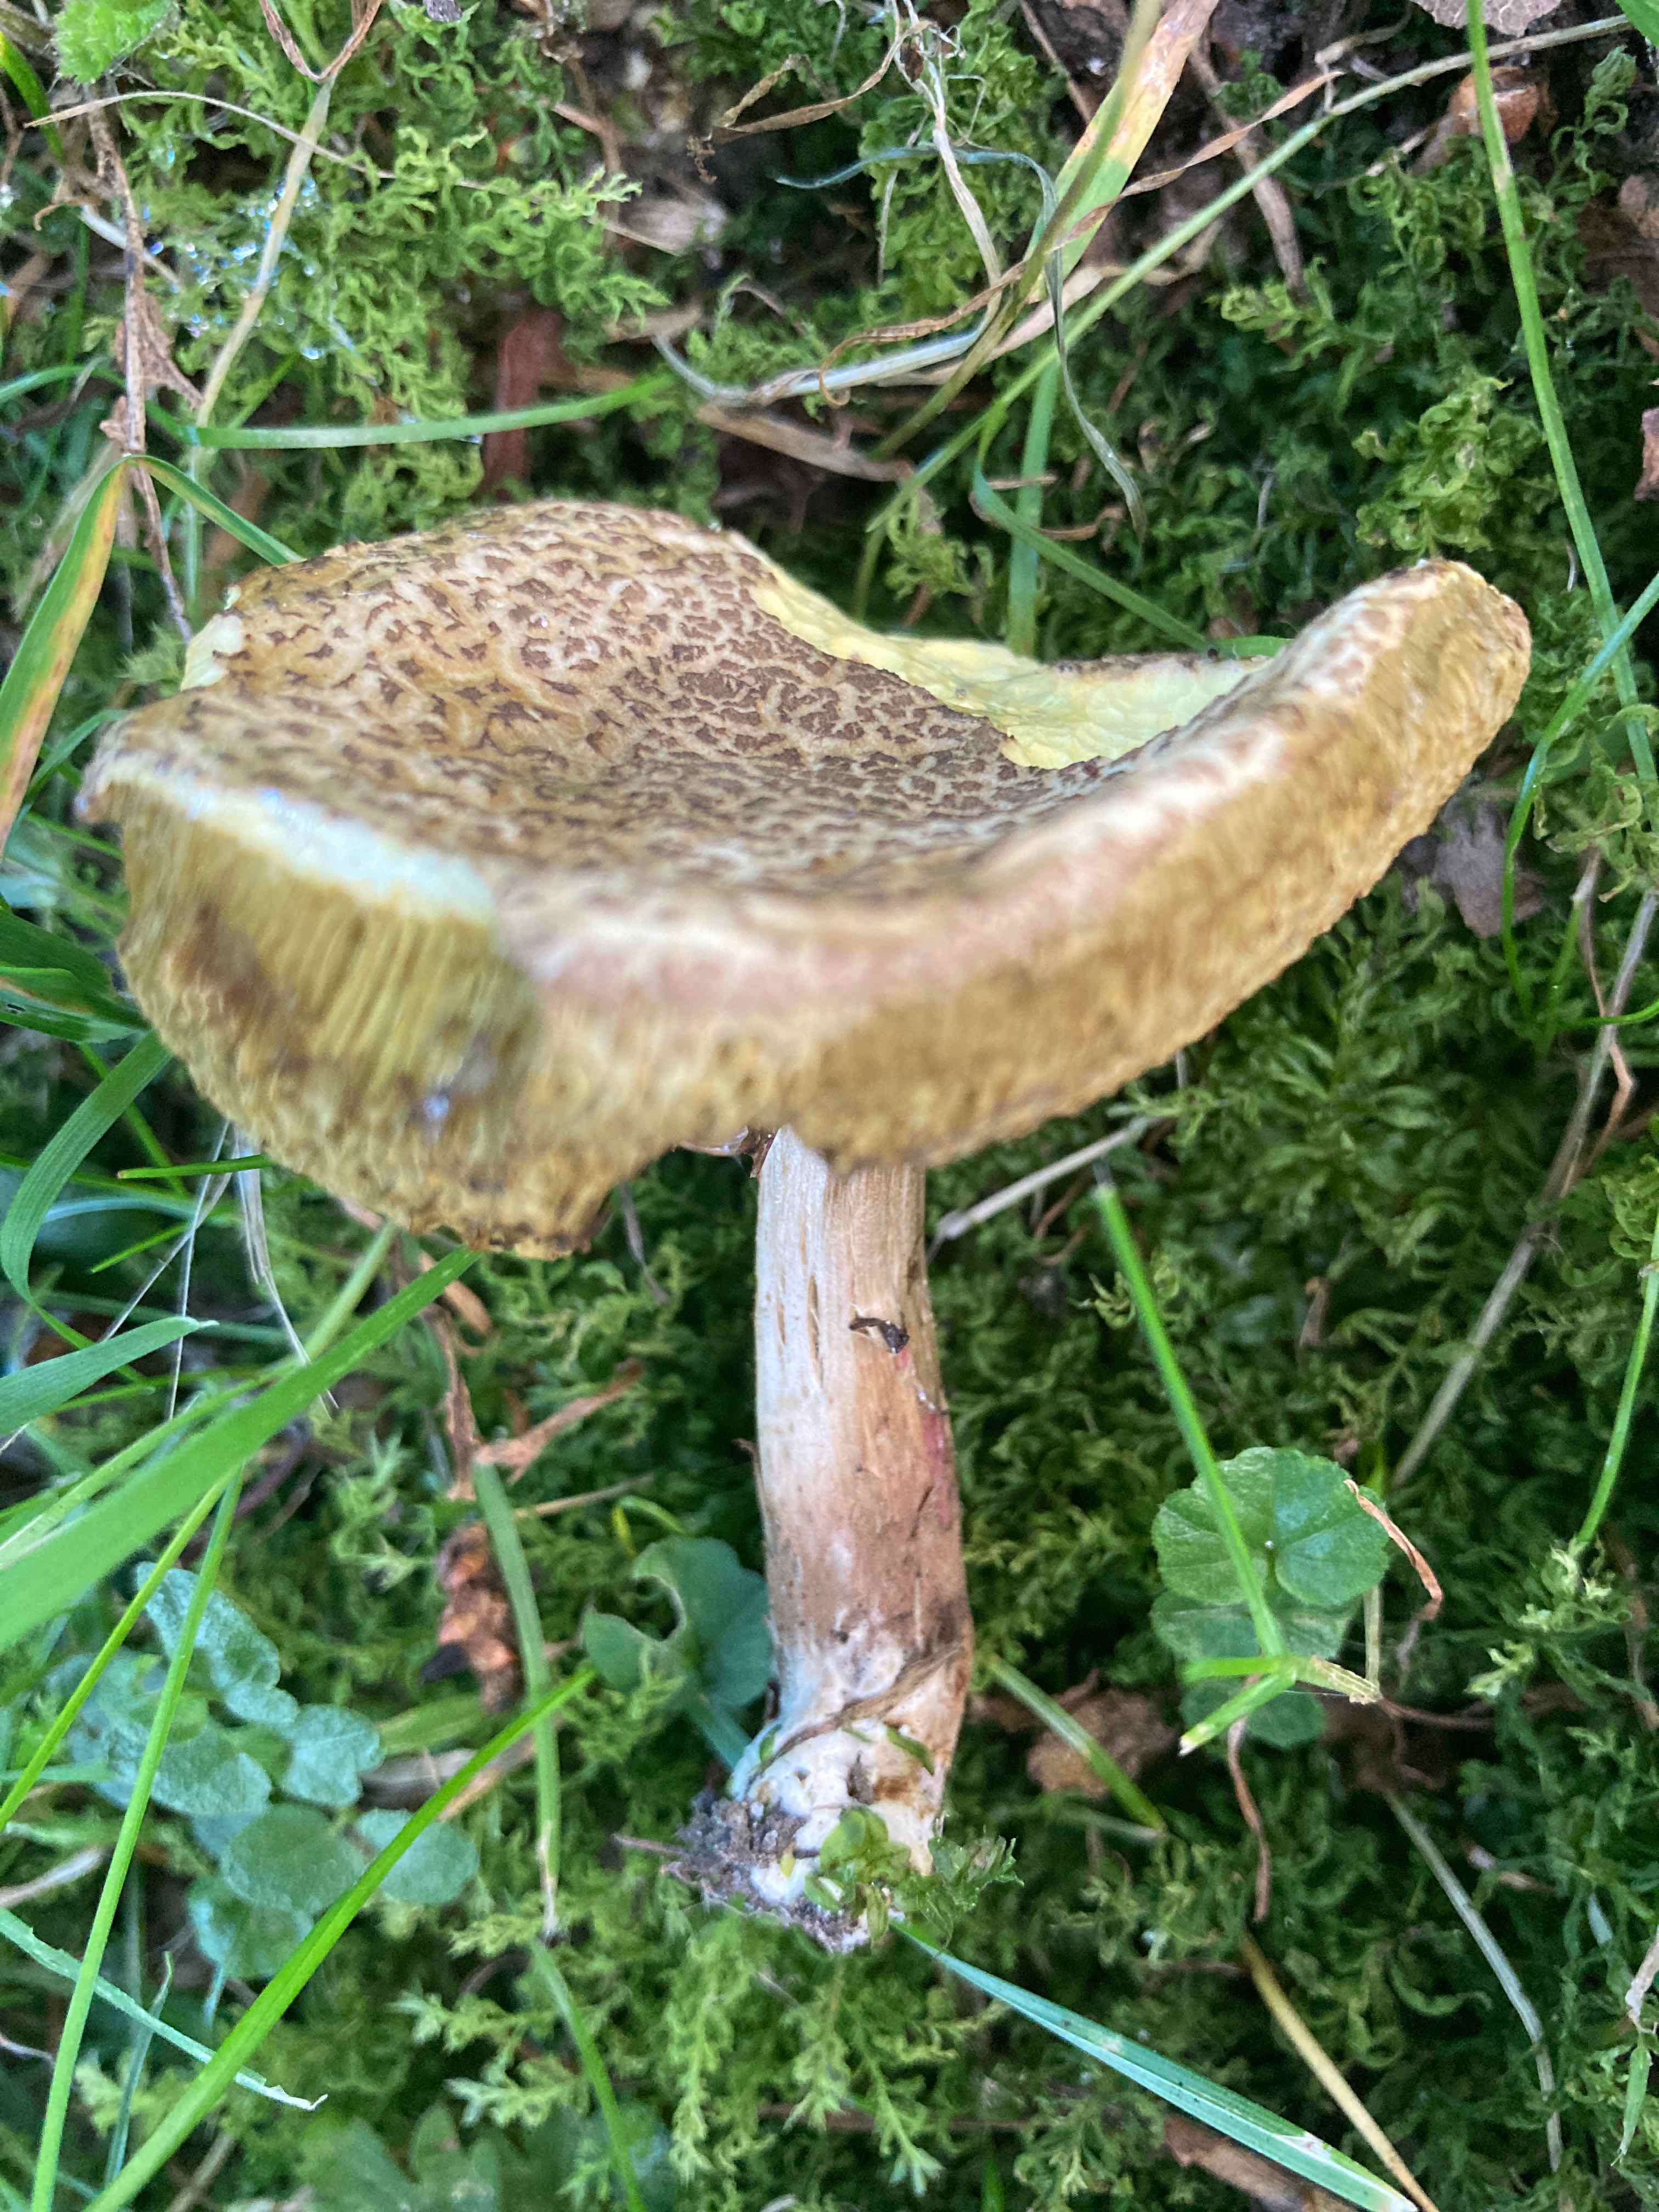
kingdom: Fungi
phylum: Basidiomycota
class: Agaricomycetes
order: Boletales
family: Boletaceae
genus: Xerocomellus
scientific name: Xerocomellus porosporus
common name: hvidsprukken rørhat
